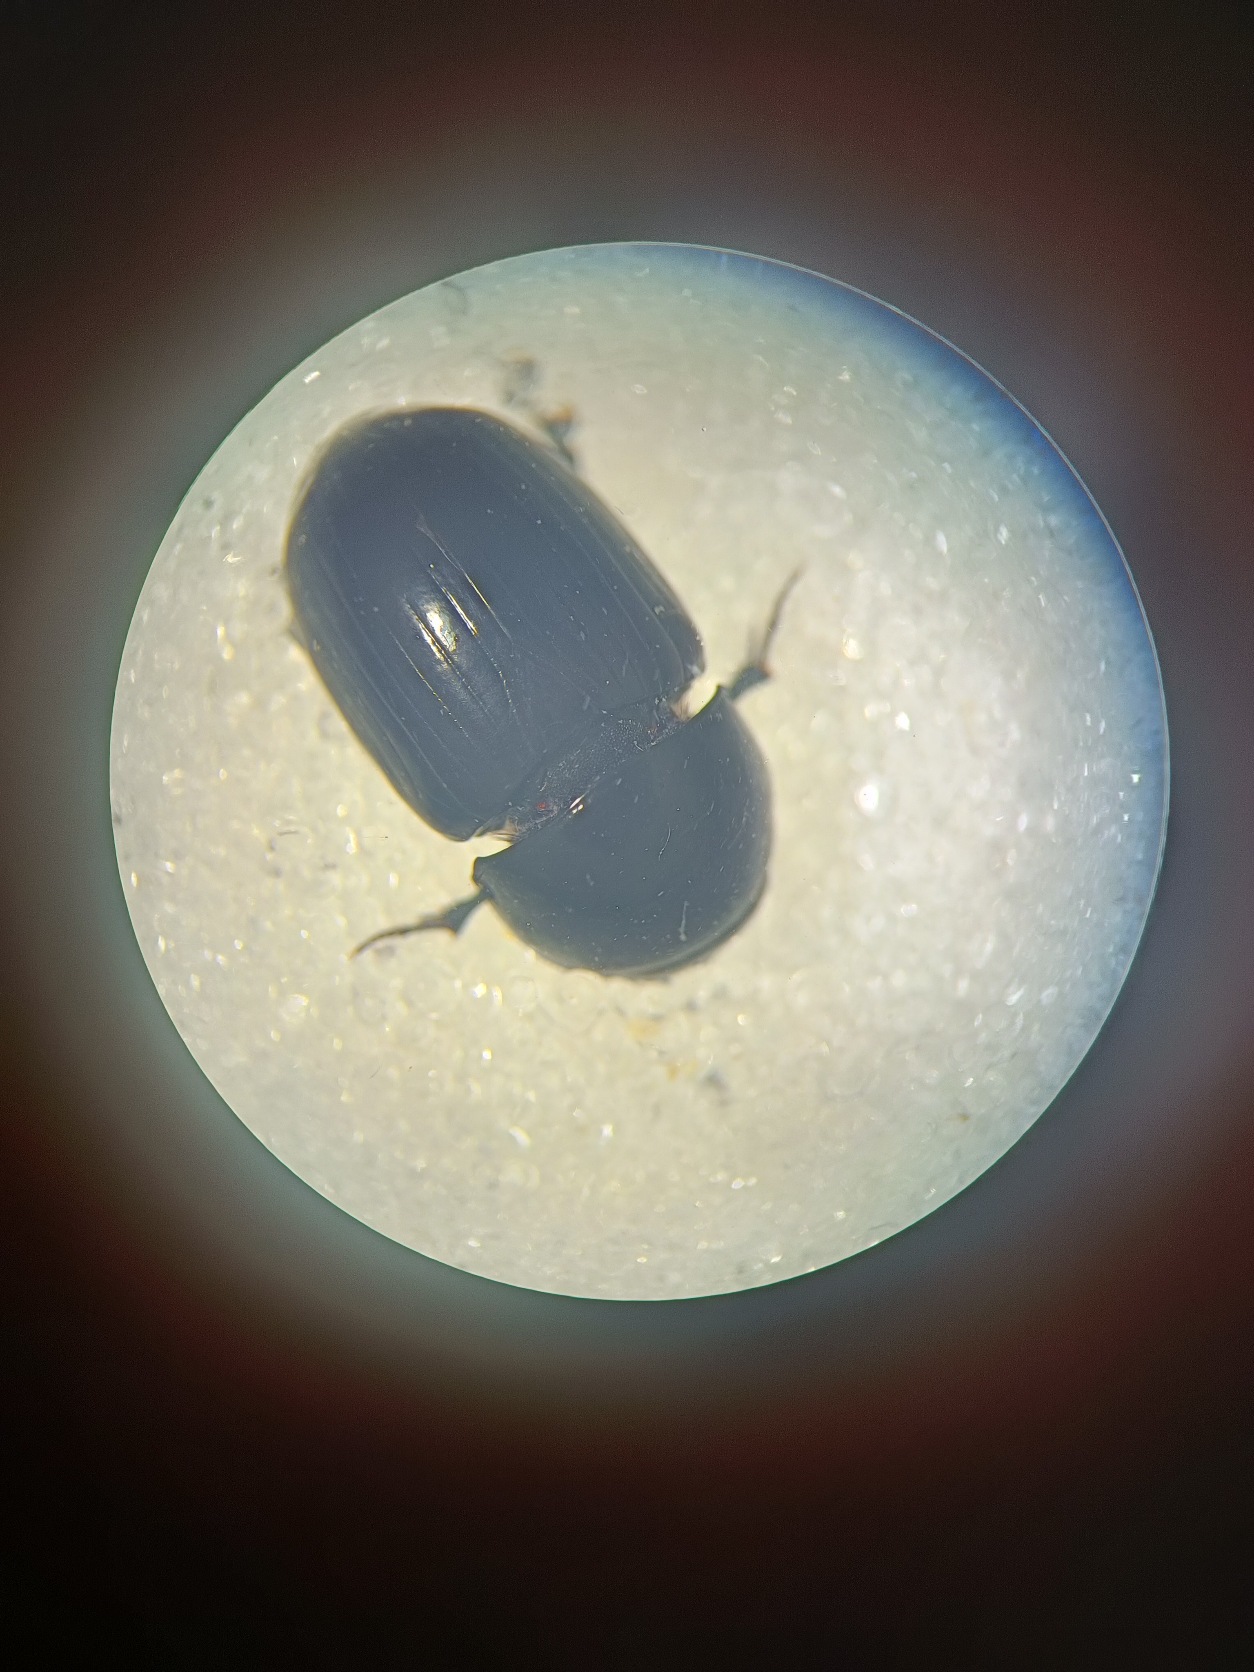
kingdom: Animalia
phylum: Arthropoda
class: Insecta
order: Coleoptera
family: Scarabaeidae
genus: Teuchestes
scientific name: Teuchestes fossor
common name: Stor møgbille
